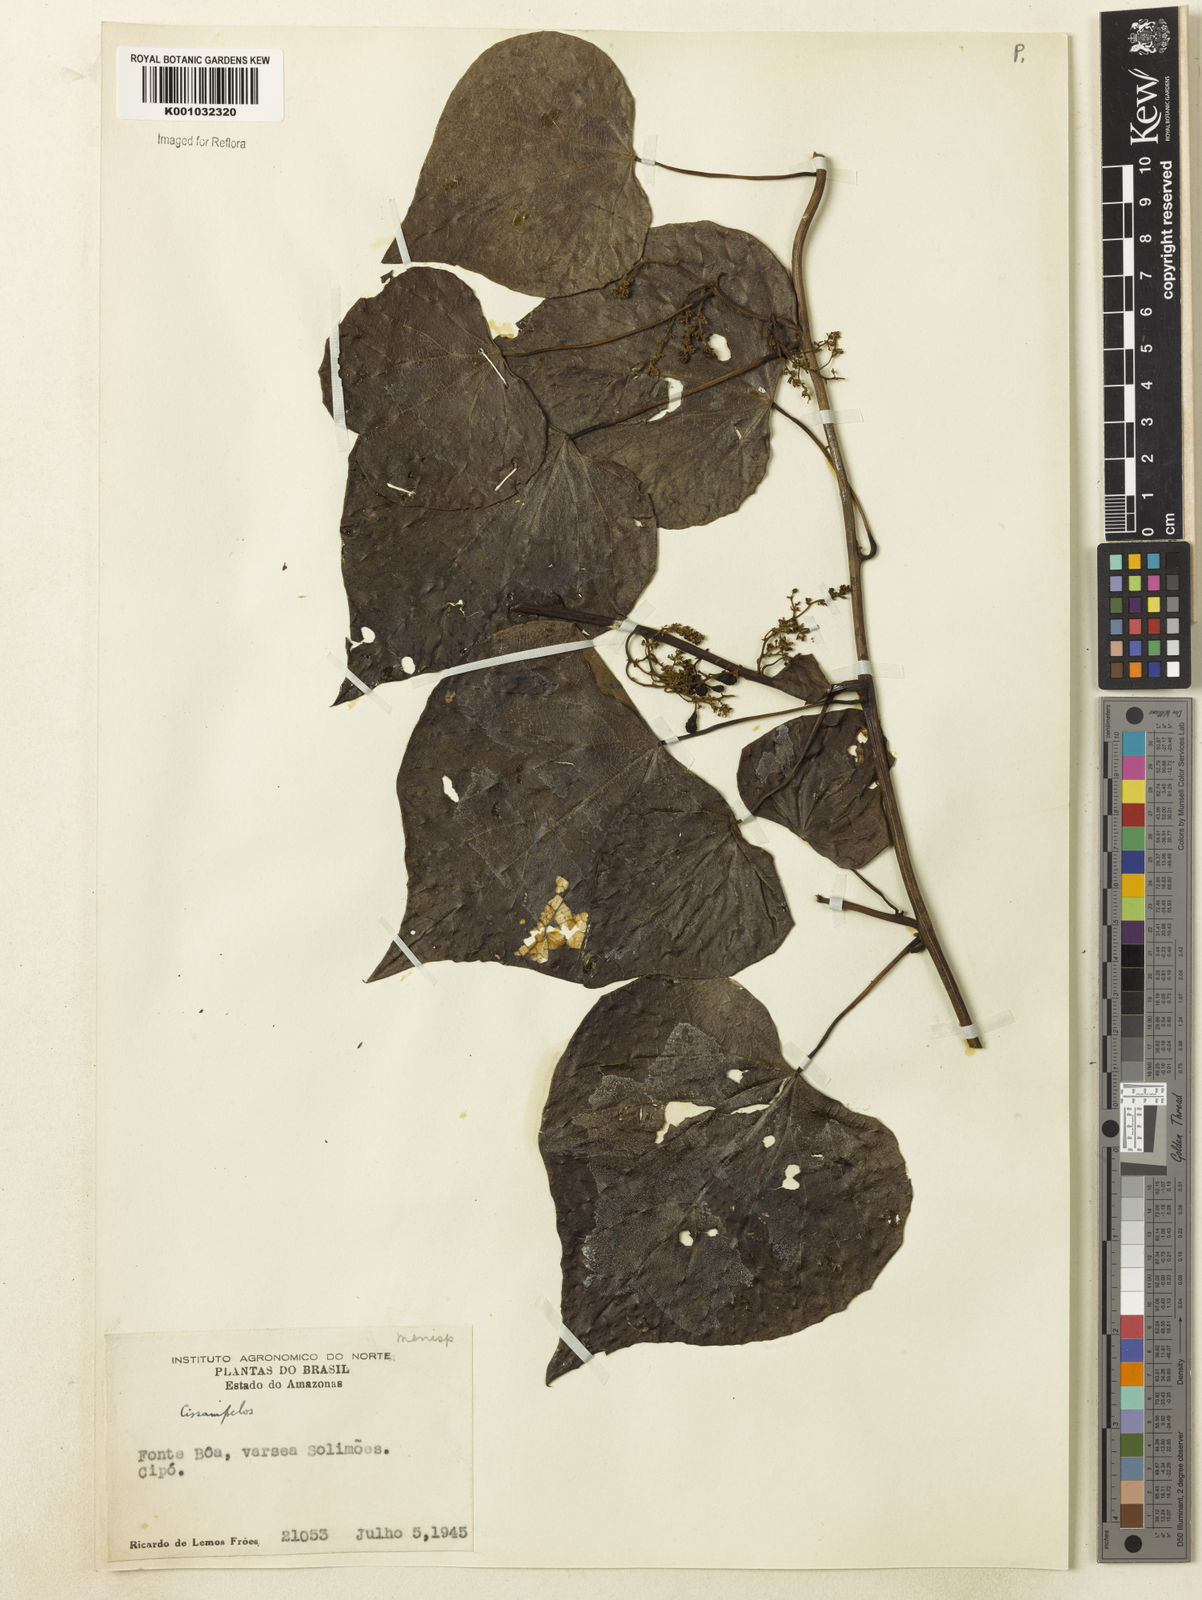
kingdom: Plantae
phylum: Tracheophyta
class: Magnoliopsida
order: Ranunculales
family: Menispermaceae
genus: Cissampelos
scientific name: Cissampelos
